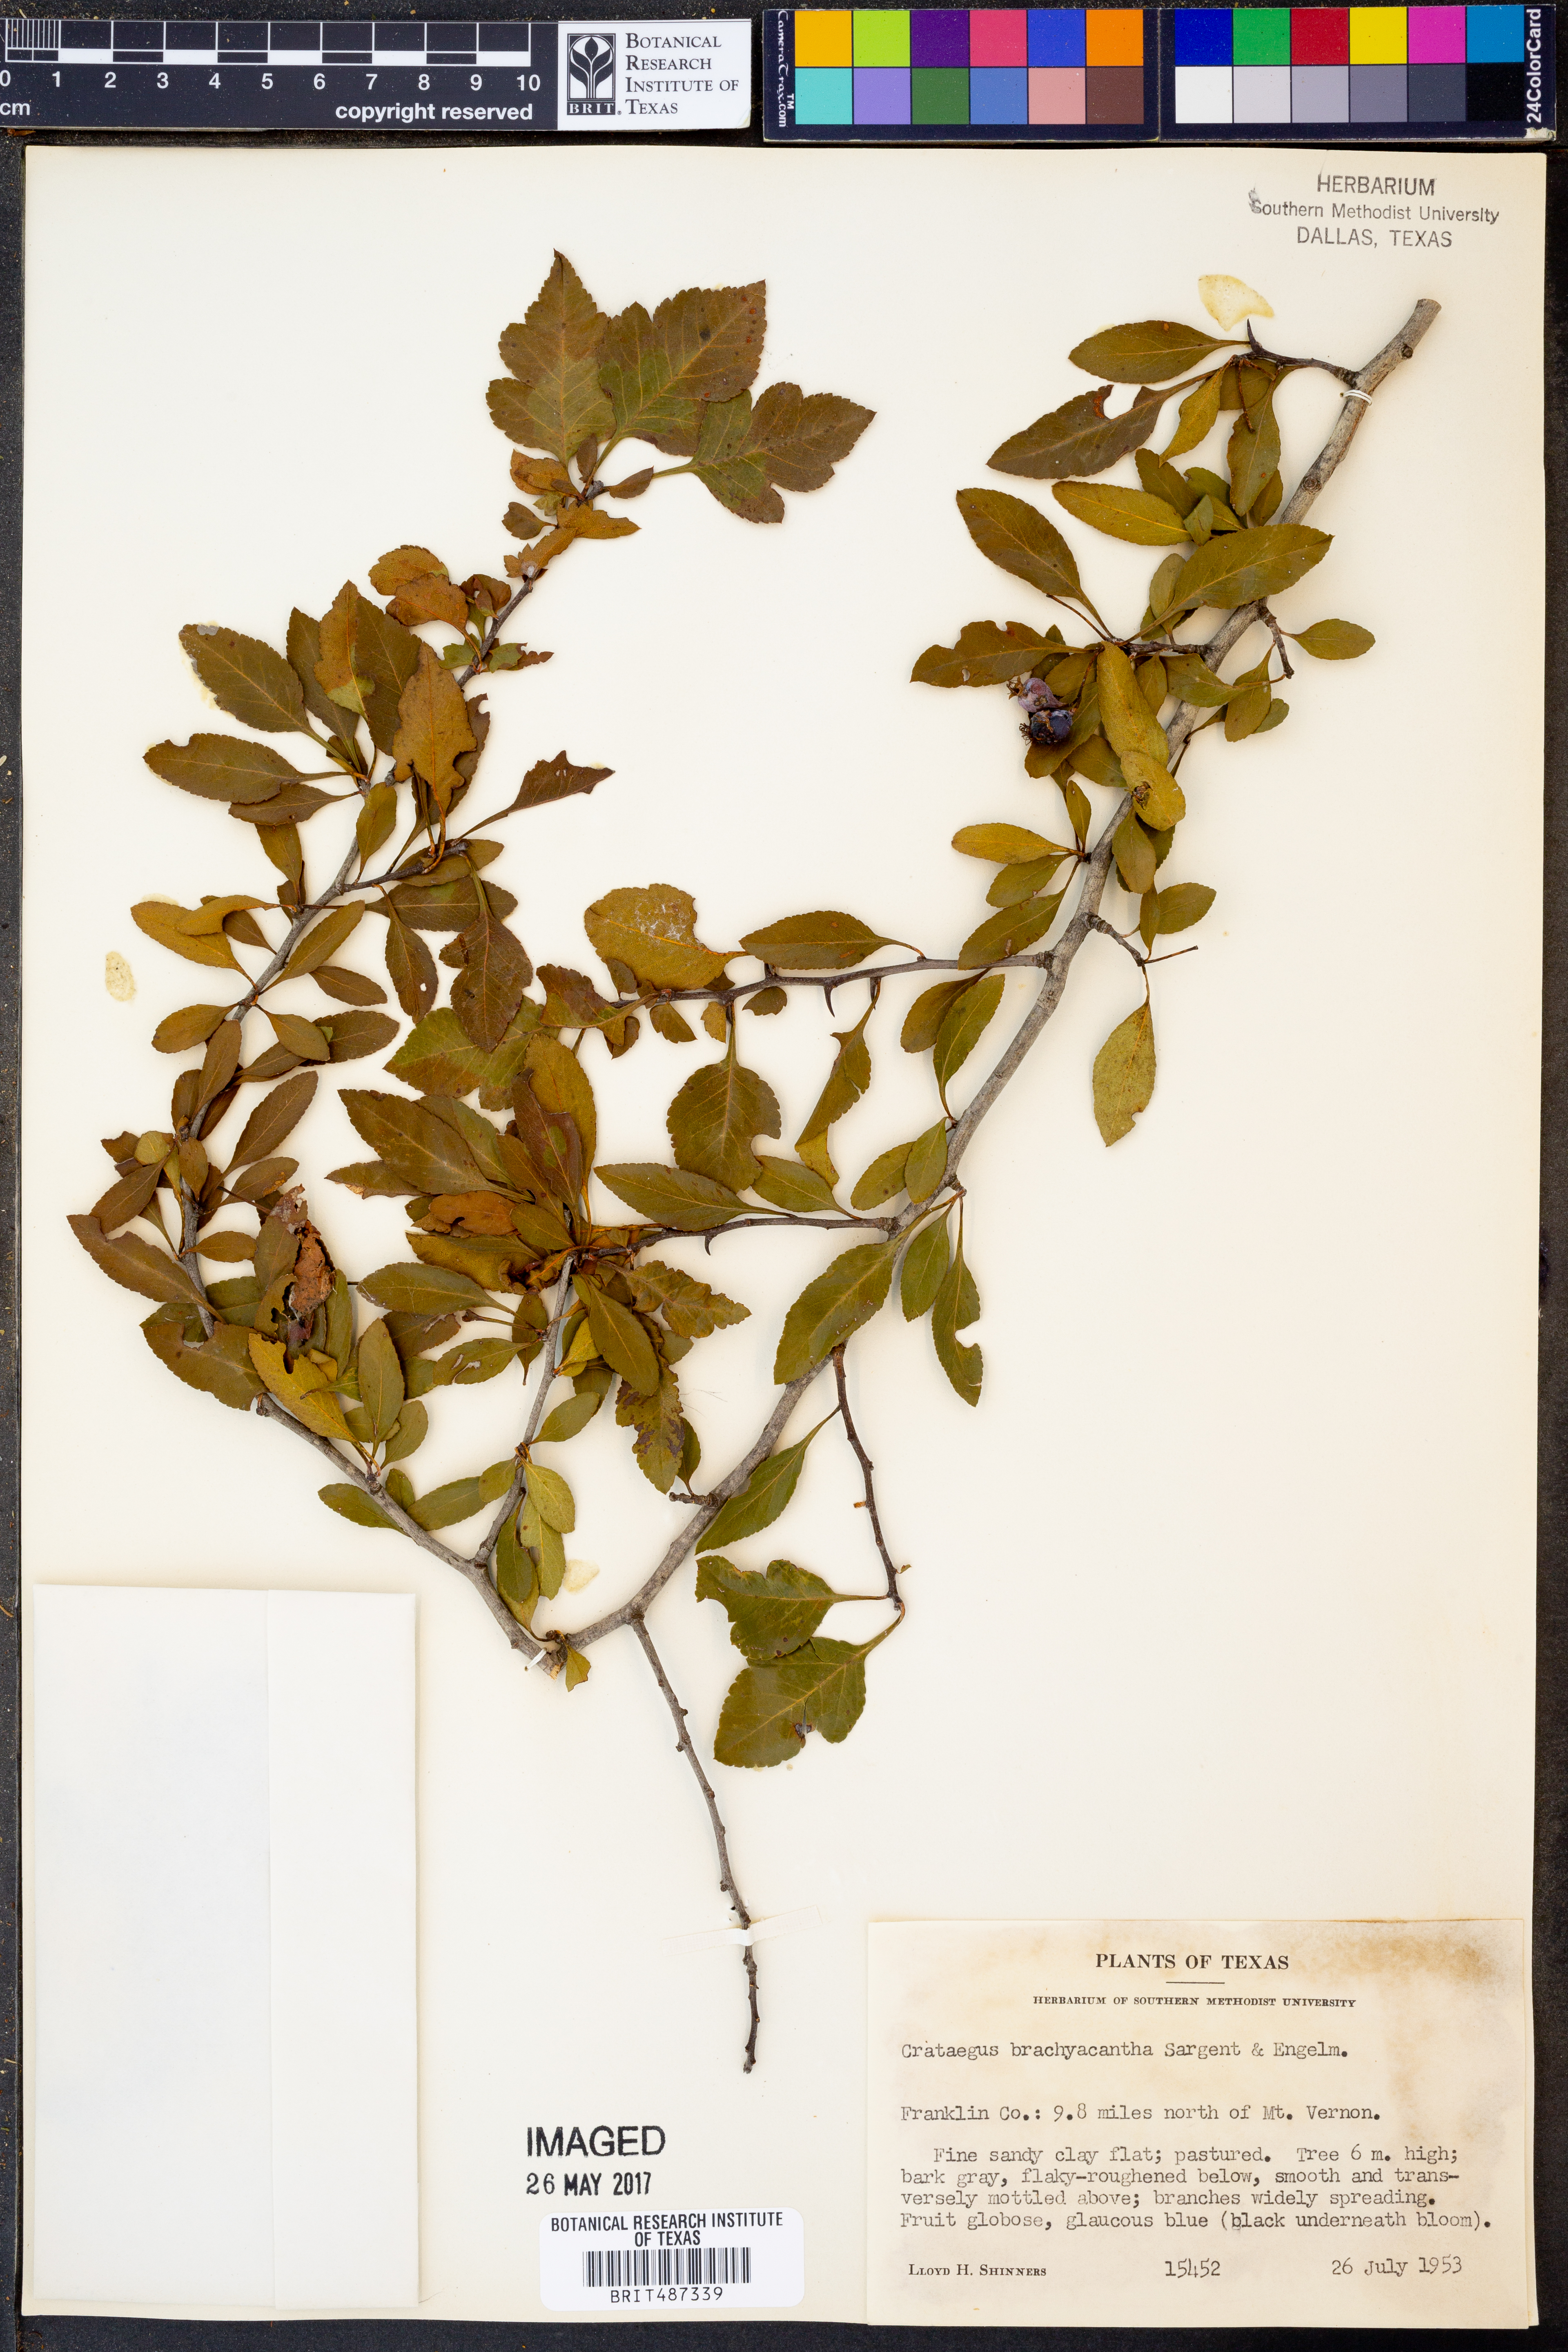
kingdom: Plantae
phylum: Tracheophyta
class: Magnoliopsida
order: Rosales
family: Rosaceae
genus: Crataegus
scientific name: Crataegus brachyacantha
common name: Blueberry-hawthorn
